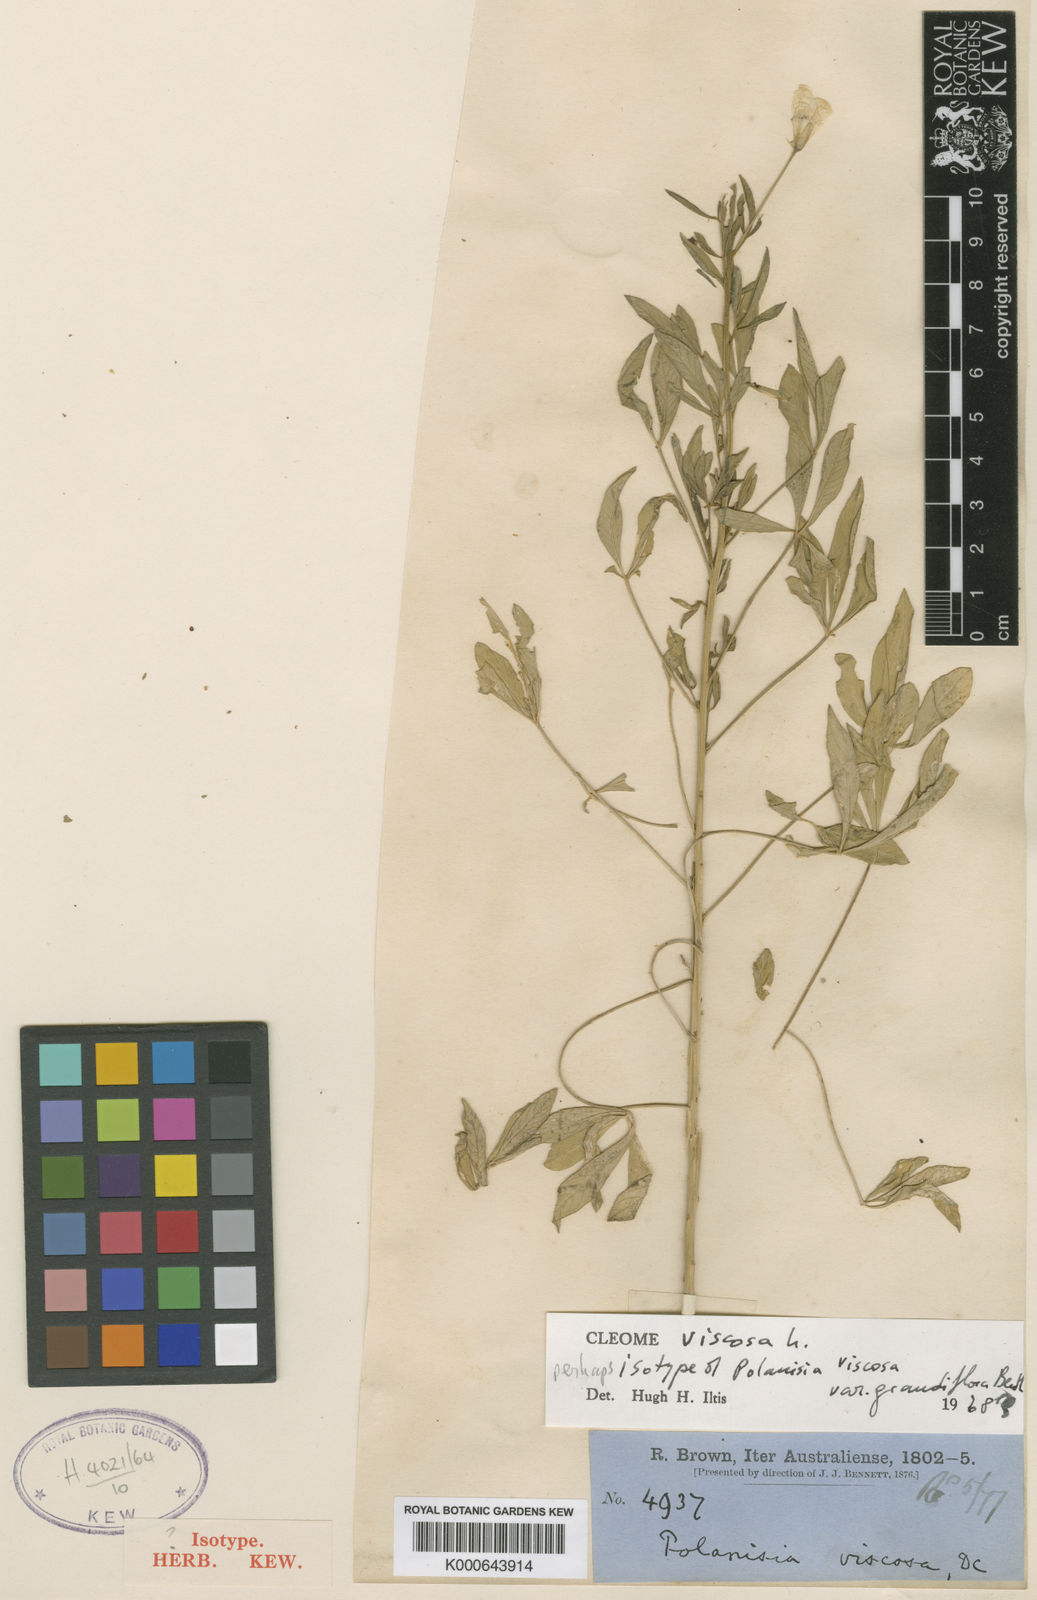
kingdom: Plantae
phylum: Tracheophyta
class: Magnoliopsida
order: Brassicales
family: Cleomaceae
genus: Arivela
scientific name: Arivela viscosa
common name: Asian spiderflower
